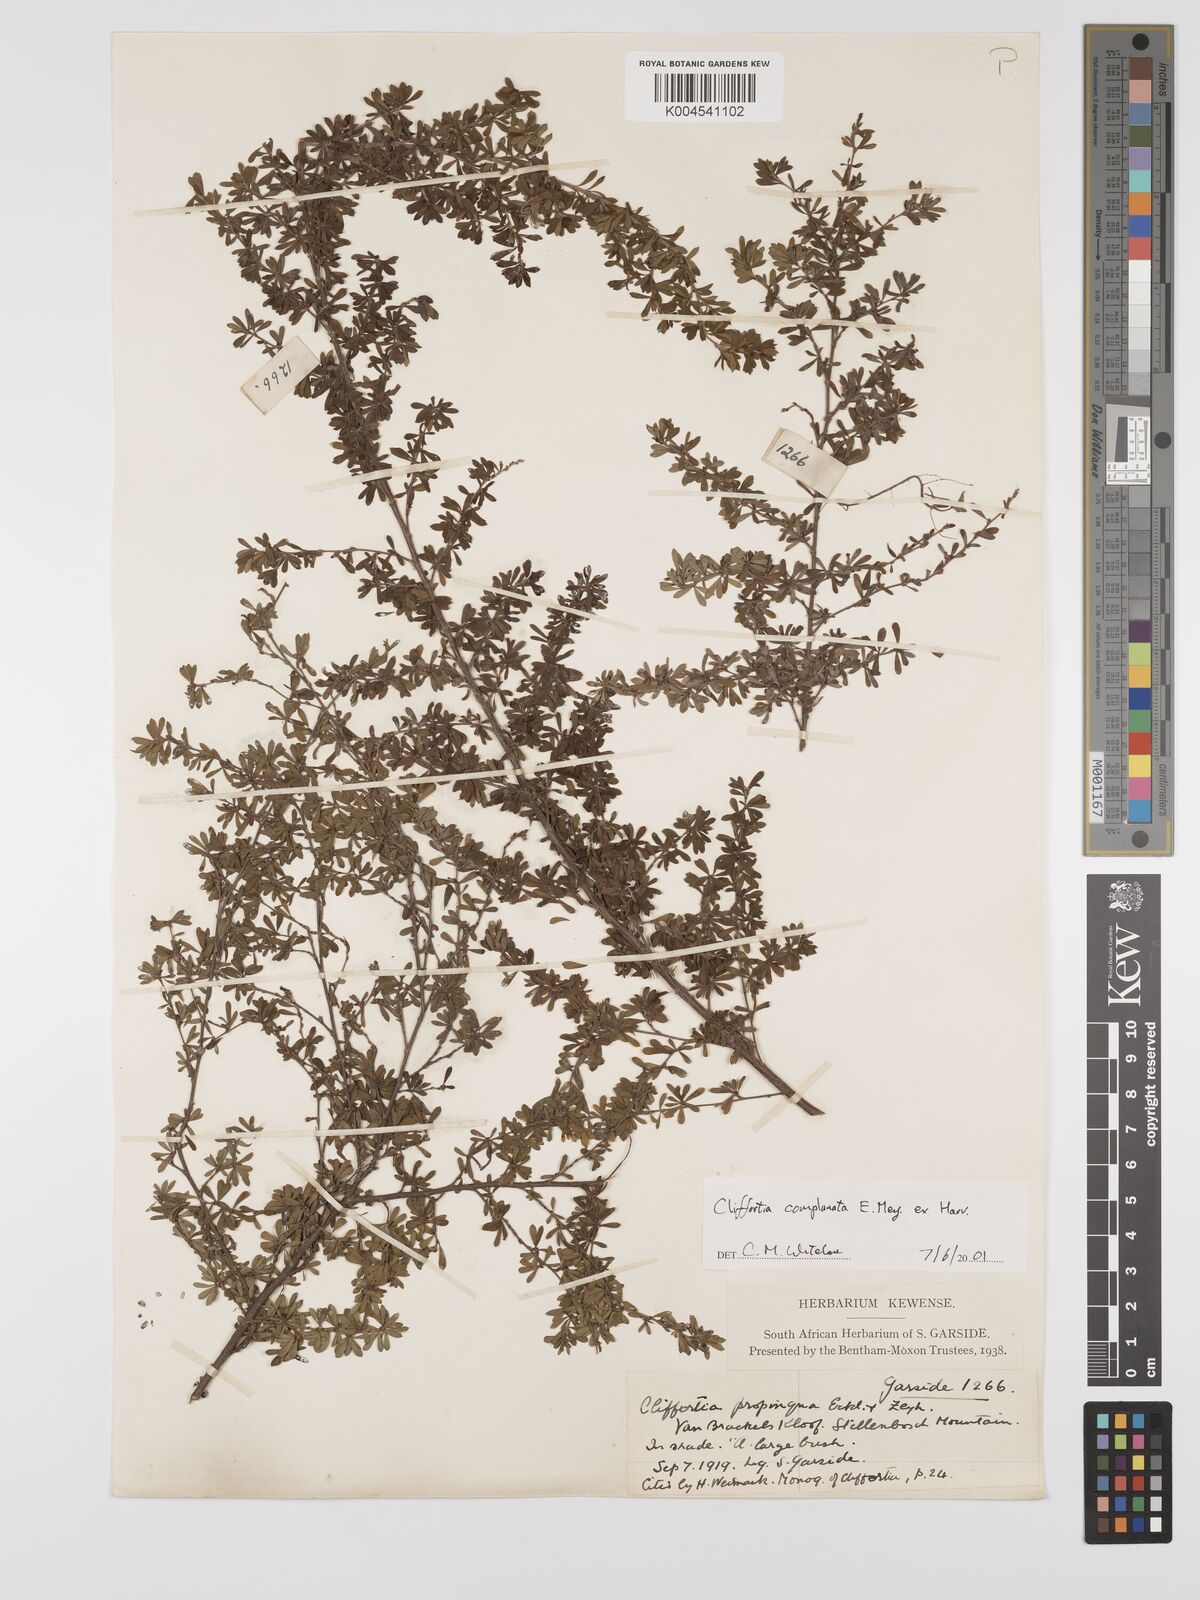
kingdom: Plantae
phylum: Tracheophyta
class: Magnoliopsida
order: Rosales
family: Rosaceae
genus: Cliffortia
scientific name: Cliffortia complanata
